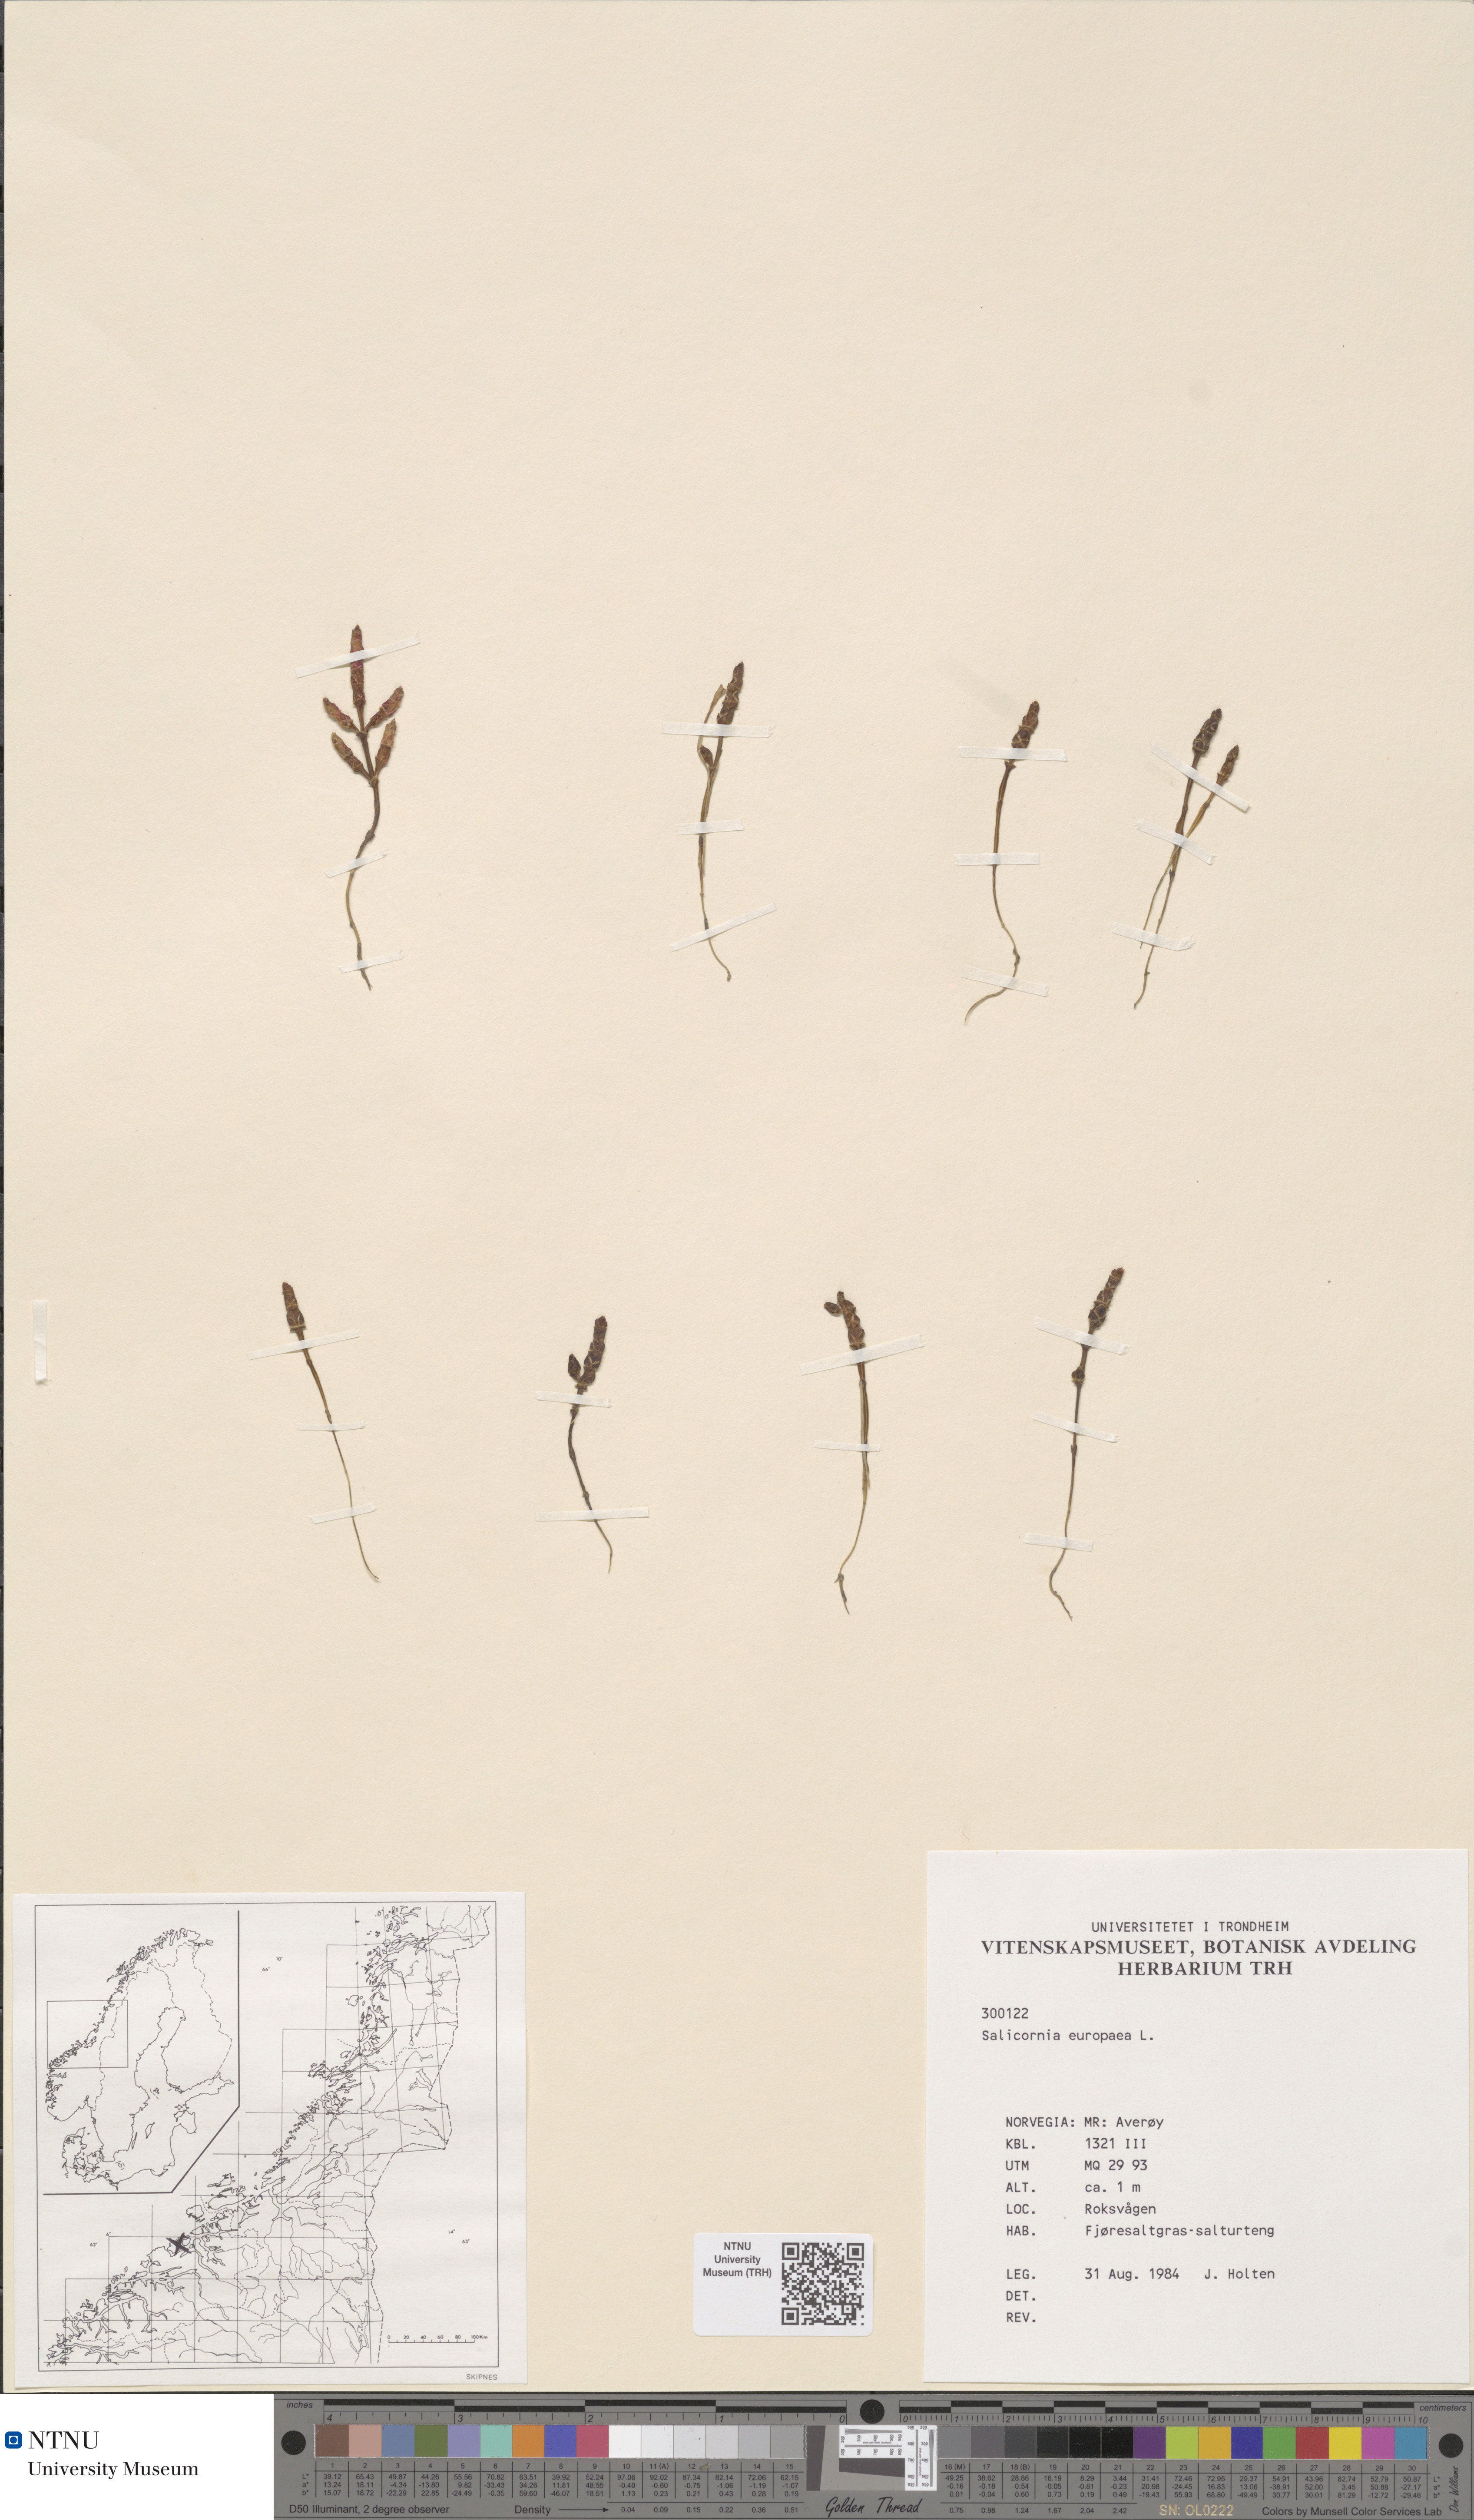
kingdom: Plantae
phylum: Tracheophyta
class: Magnoliopsida
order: Caryophyllales
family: Amaranthaceae
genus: Salicornia
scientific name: Salicornia europaea
